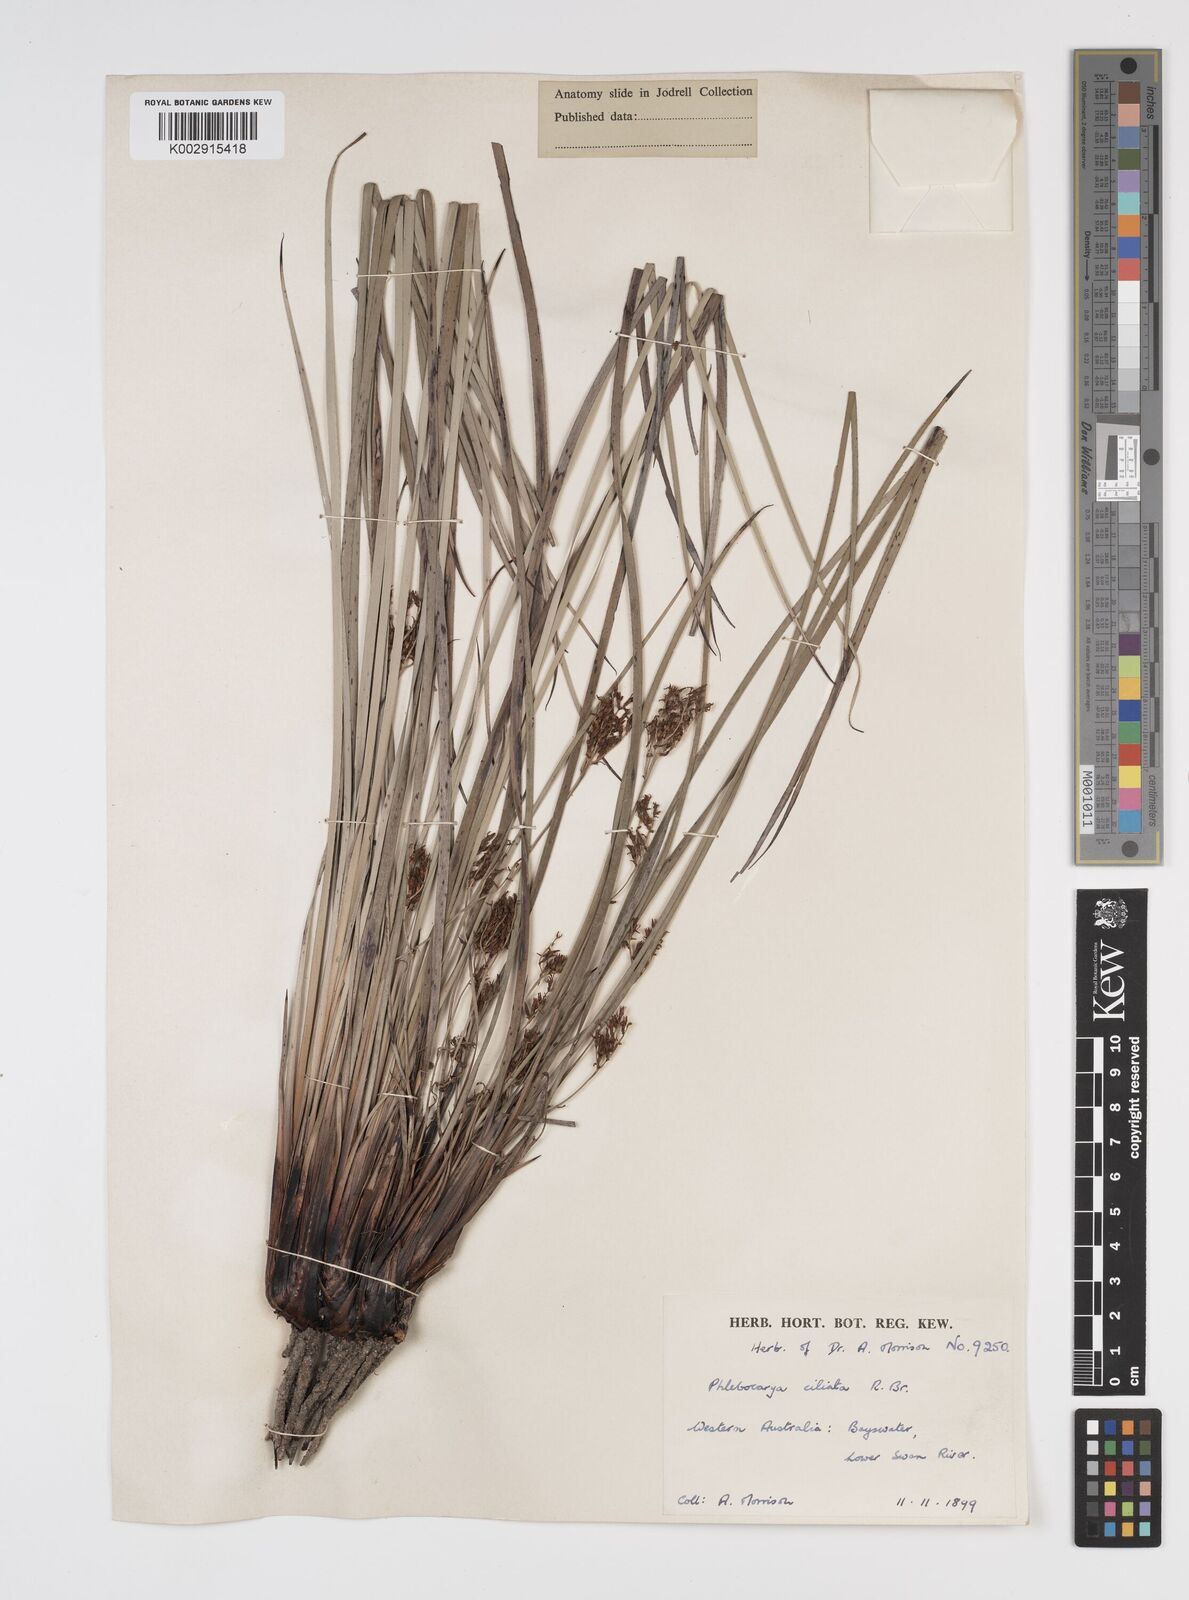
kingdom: Plantae
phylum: Tracheophyta
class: Liliopsida
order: Commelinales
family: Haemodoraceae
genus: Phlebocarya
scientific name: Phlebocarya ciliata
